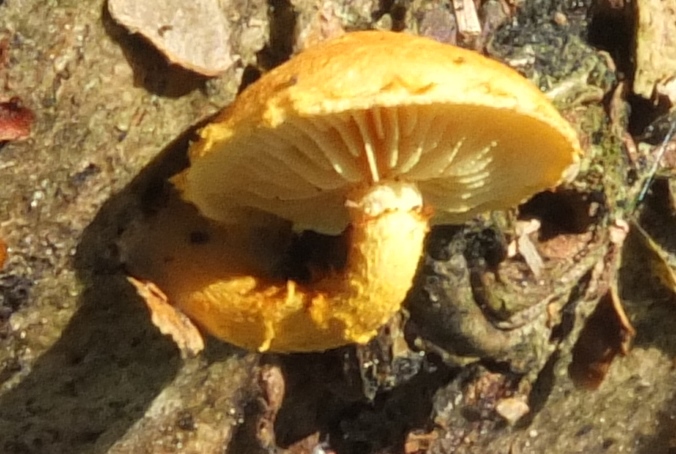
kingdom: Fungi
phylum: Basidiomycota
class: Agaricomycetes
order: Agaricales
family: Strophariaceae
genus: Pholiota
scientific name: Pholiota tuberculosa
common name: finskællet skælhat
